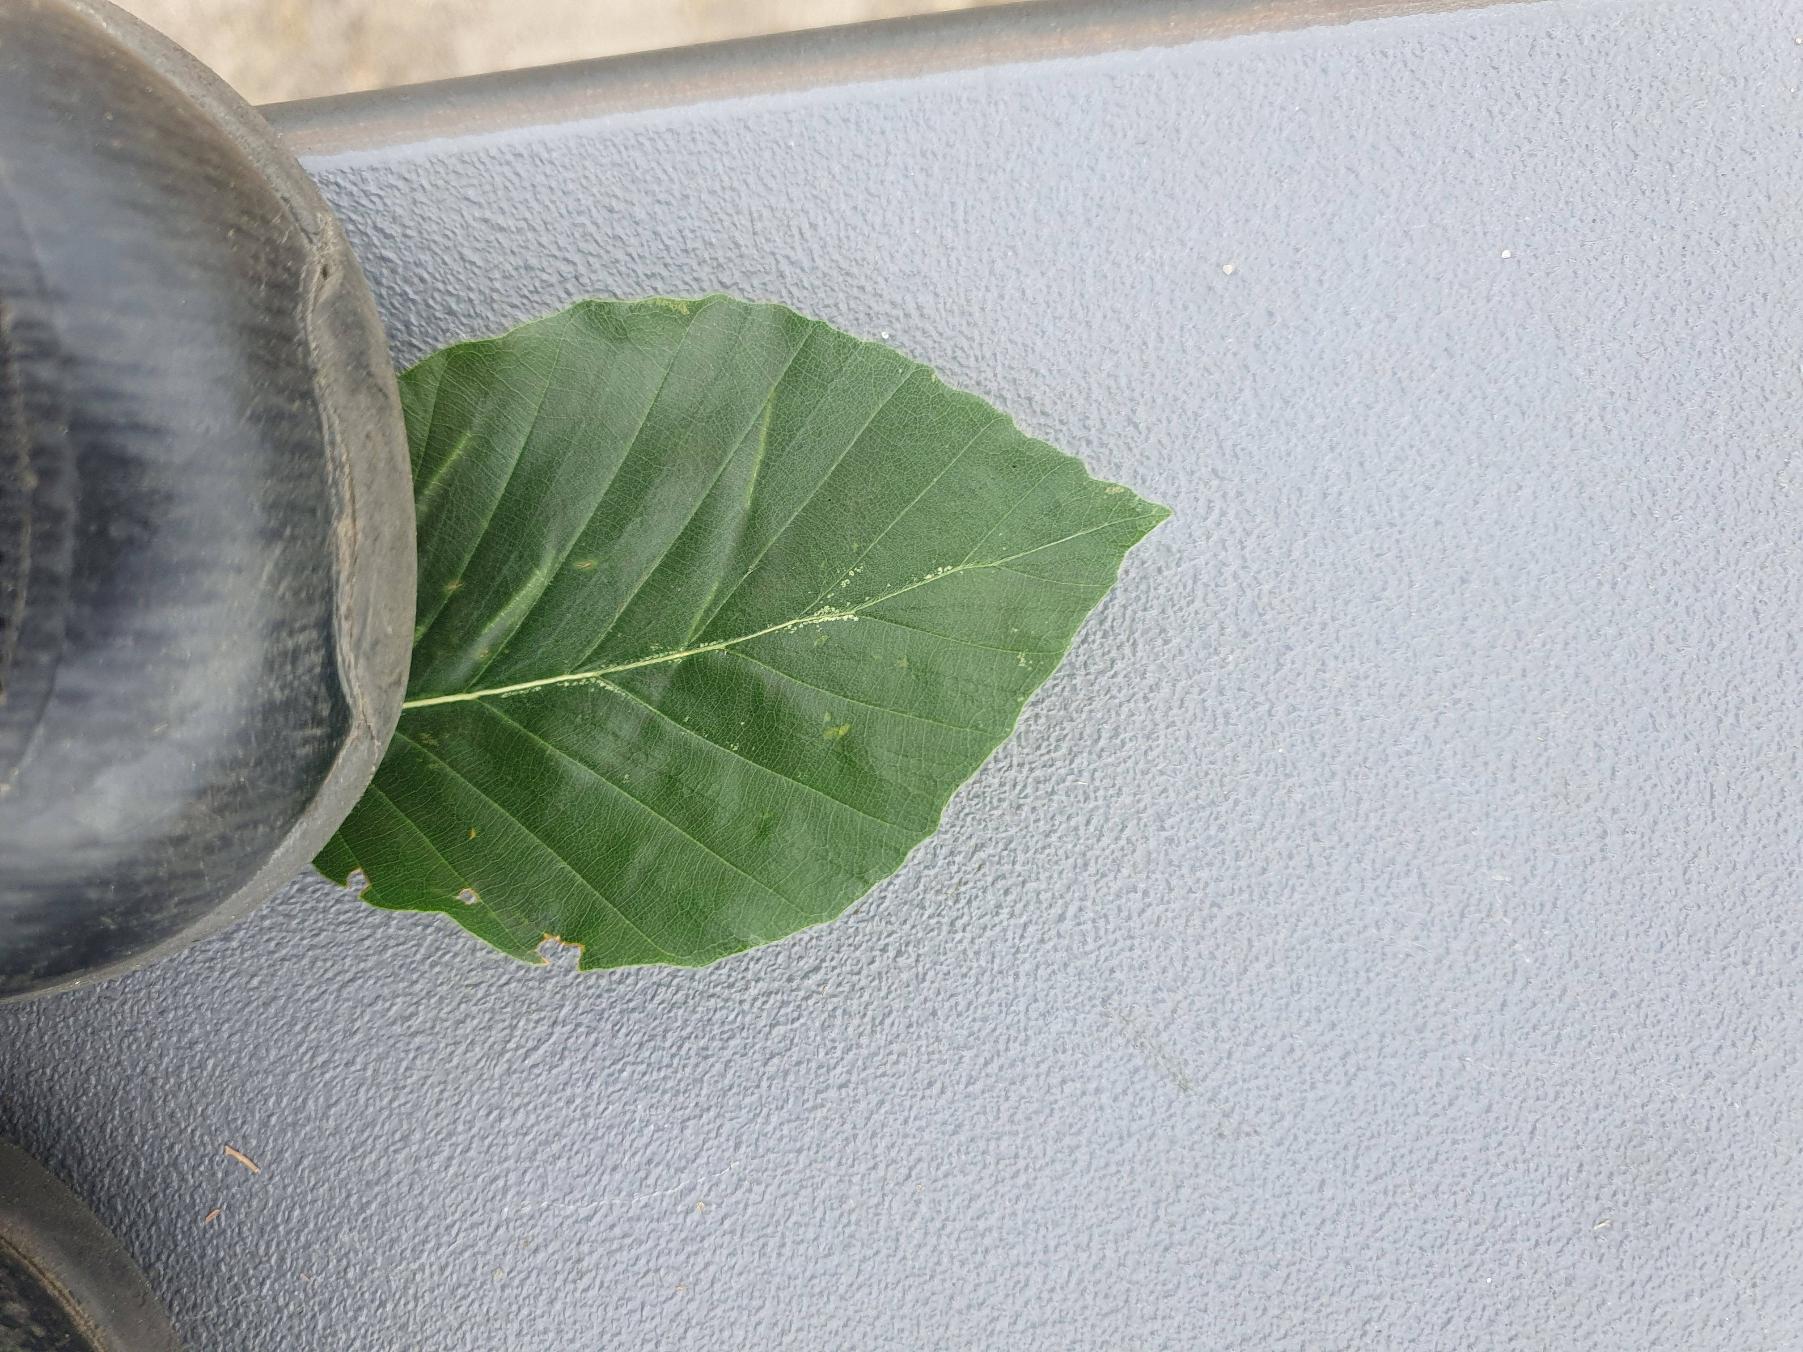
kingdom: Plantae
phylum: Tracheophyta
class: Magnoliopsida
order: Fagales
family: Fagaceae
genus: Fagus
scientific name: Fagus sylvatica
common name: Bøg
